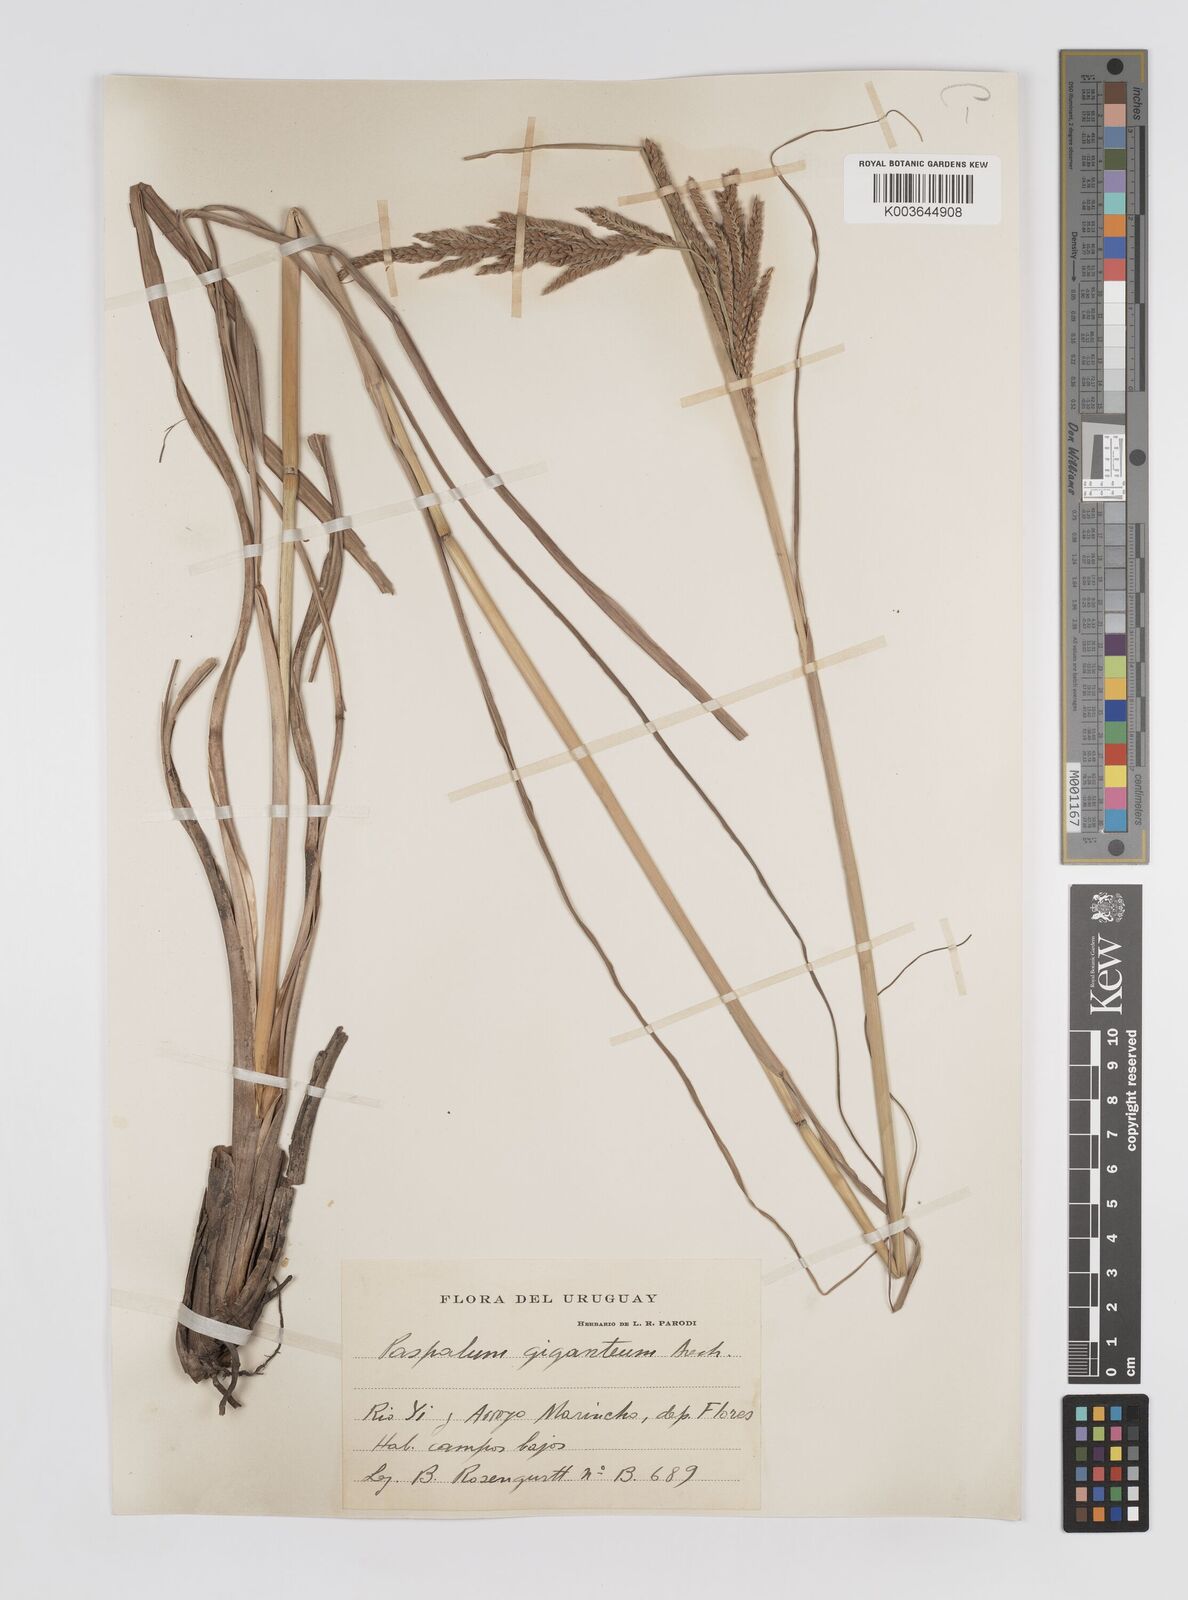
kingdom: Plantae
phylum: Tracheophyta
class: Liliopsida
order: Poales
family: Poaceae
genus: Paspalum
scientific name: Paspalum rufum
